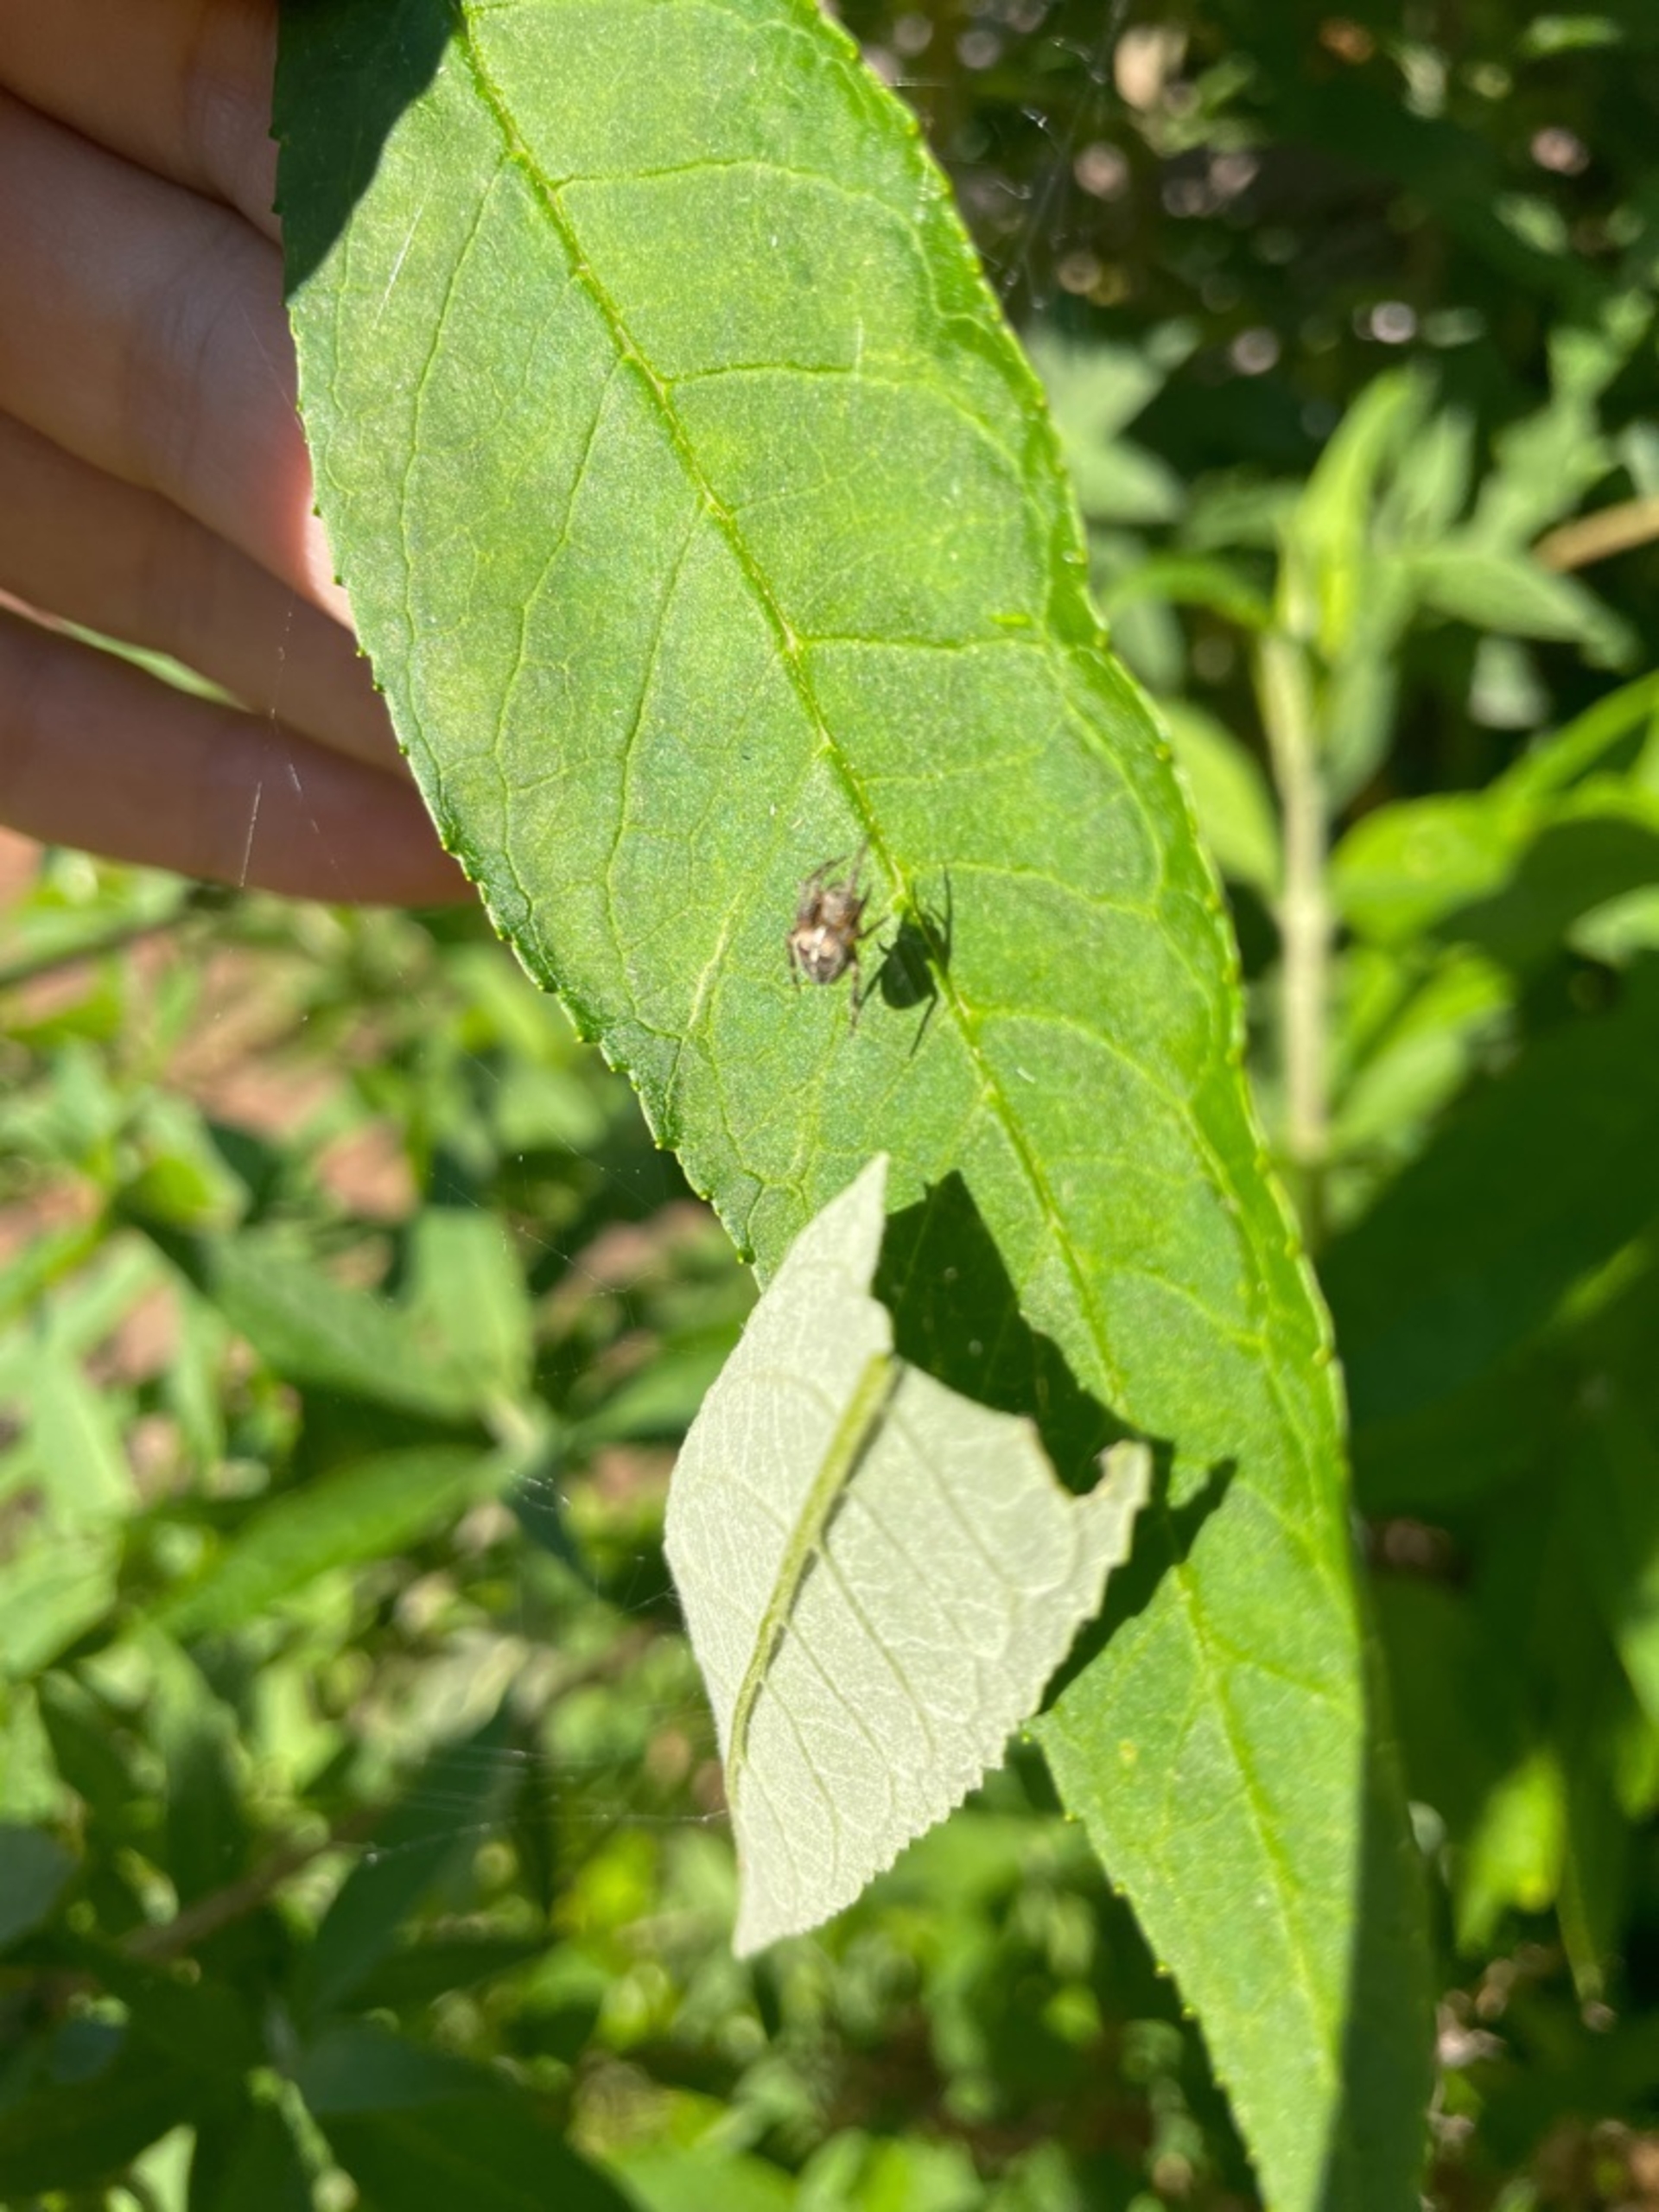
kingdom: Animalia
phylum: Arthropoda
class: Arachnida
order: Araneae
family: Araneidae
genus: Araneus
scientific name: Araneus diadematus
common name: Korsedderkop
